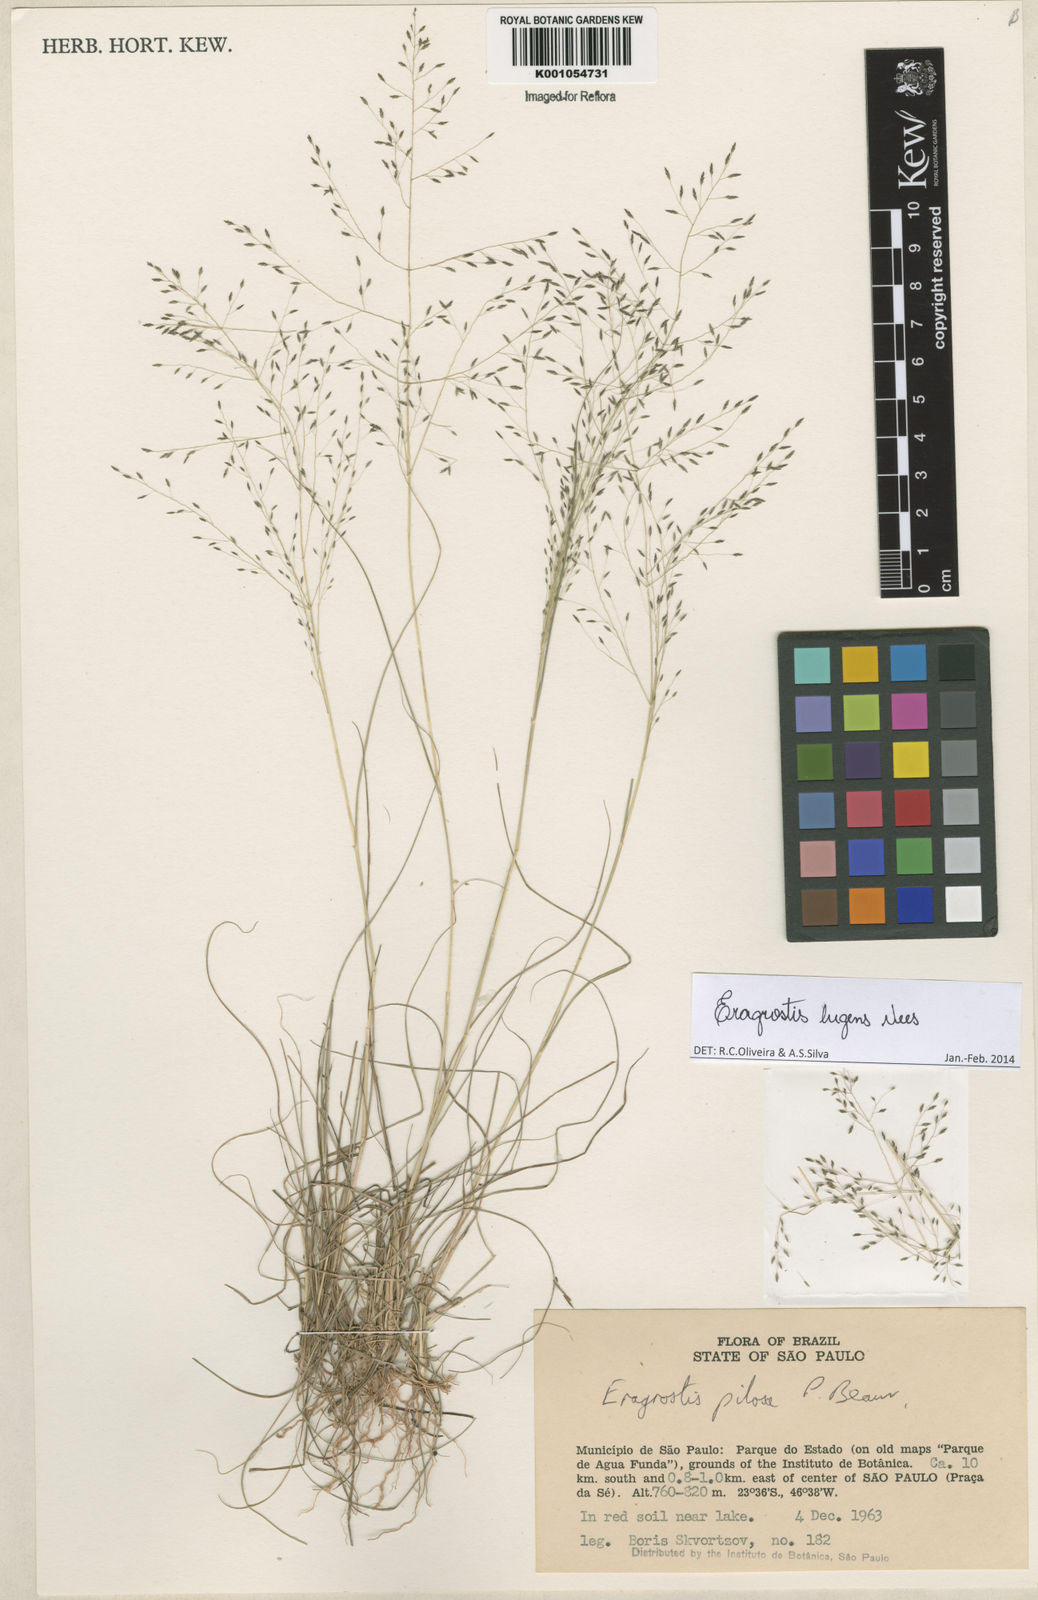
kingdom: Plantae
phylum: Tracheophyta
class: Liliopsida
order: Poales
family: Poaceae
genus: Eragrostis
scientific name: Eragrostis lugens
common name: Mourning love grass
